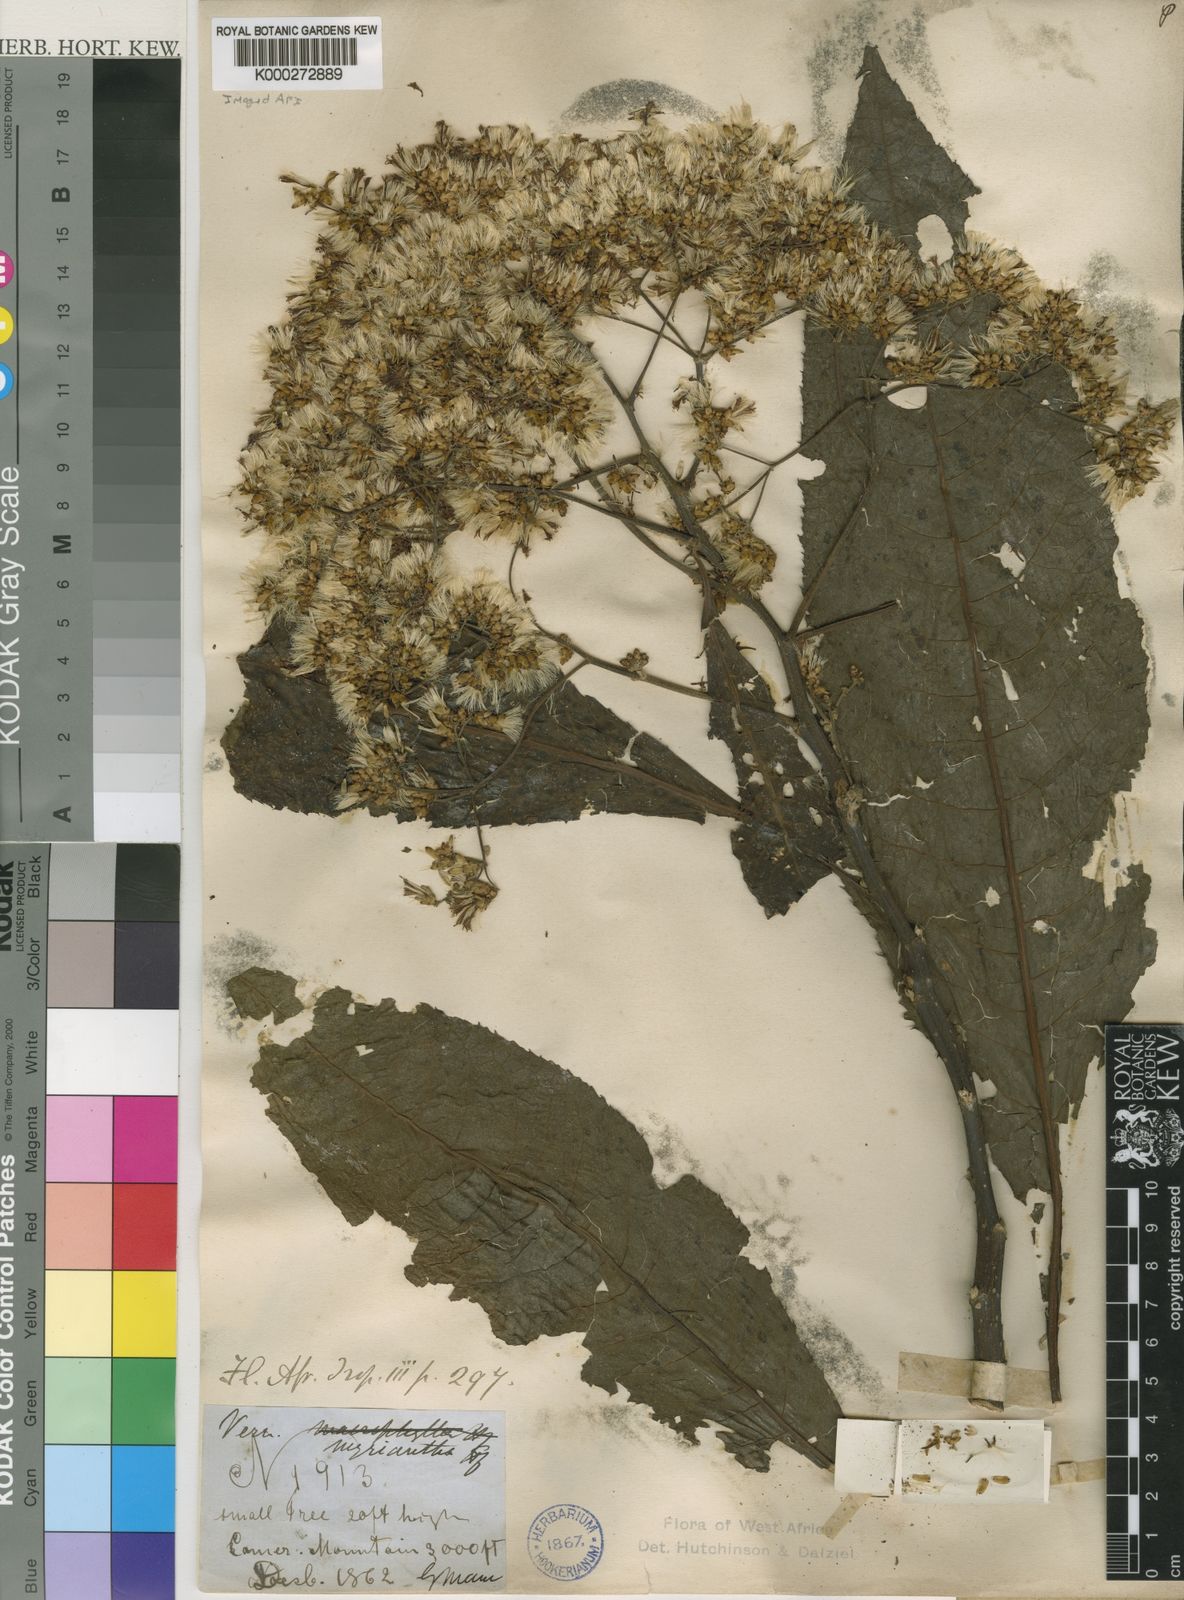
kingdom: Plantae
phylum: Tracheophyta
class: Magnoliopsida
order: Asterales
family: Asteraceae
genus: Gymnanthemum
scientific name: Gymnanthemum myrianthum
